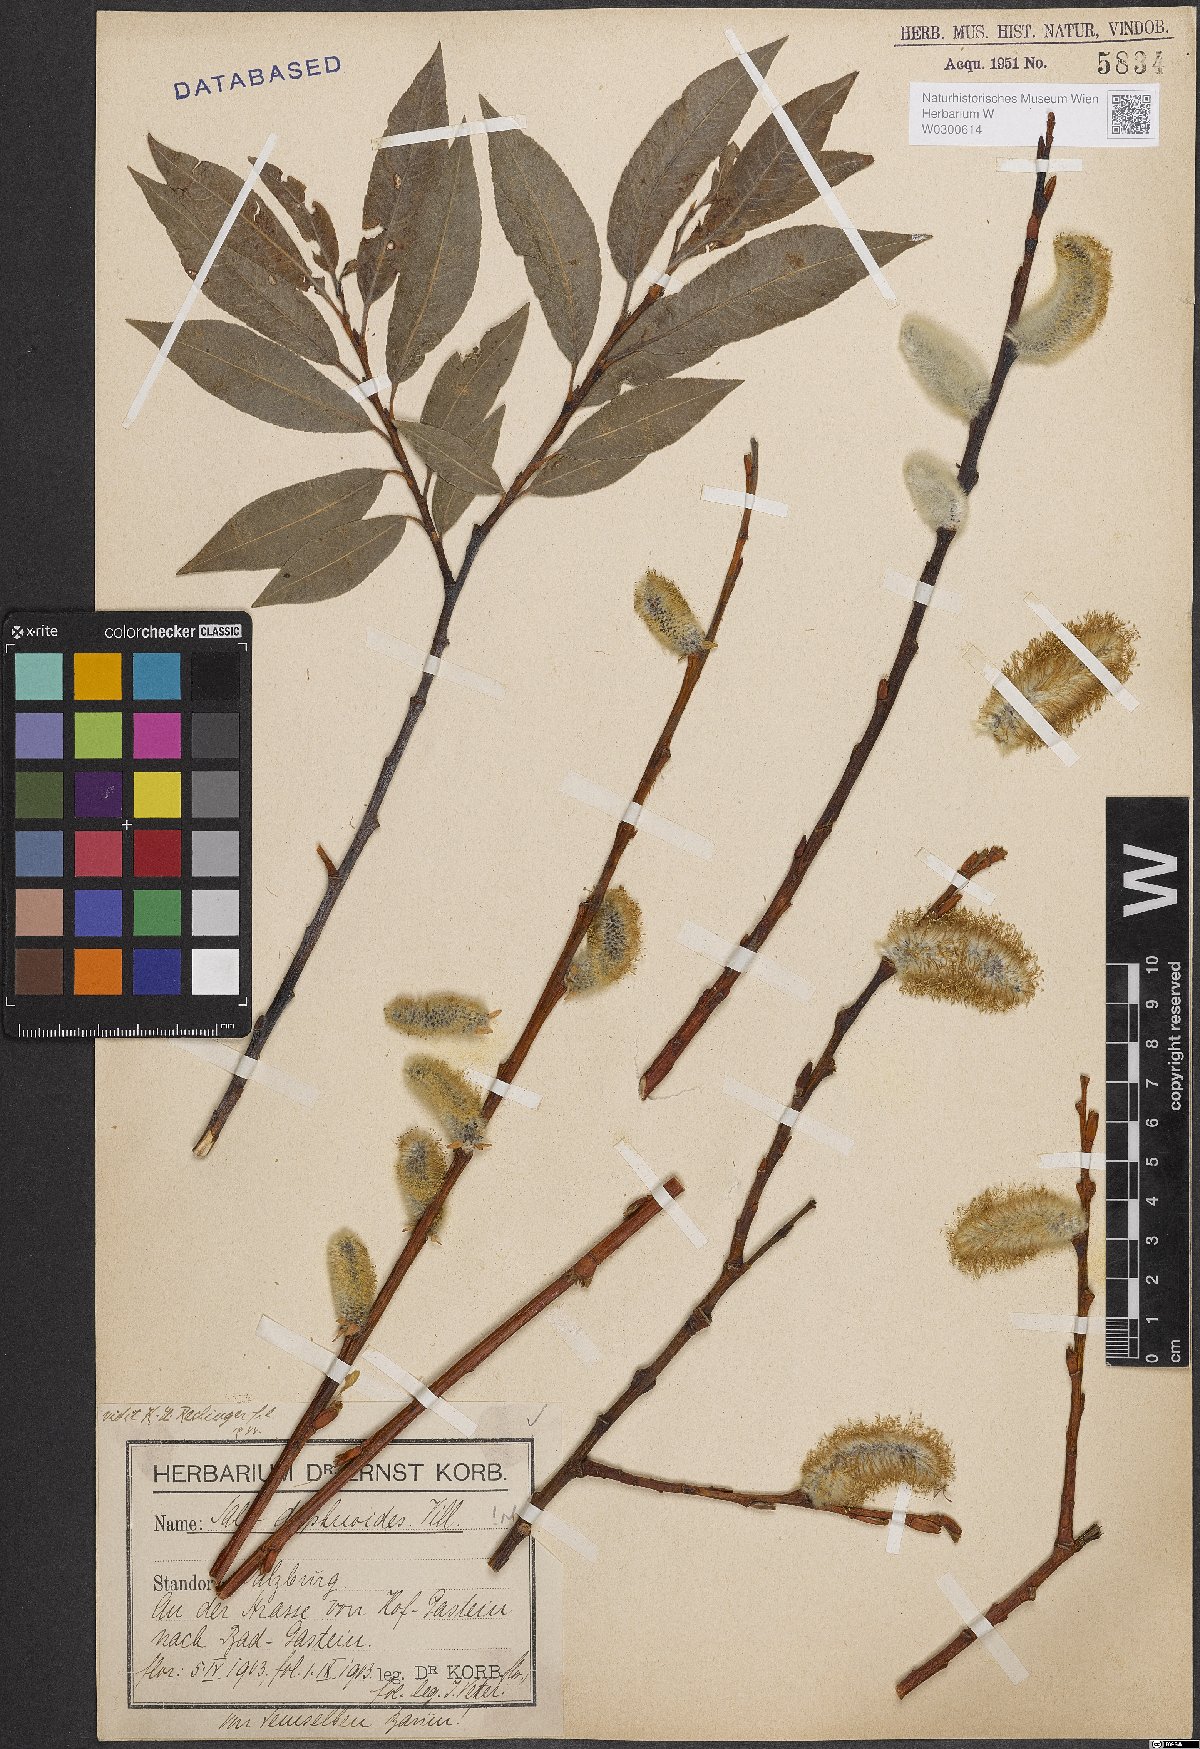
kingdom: Plantae
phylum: Tracheophyta
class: Magnoliopsida
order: Malpighiales
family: Salicaceae
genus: Salix
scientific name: Salix daphnoides
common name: European violet-willow
